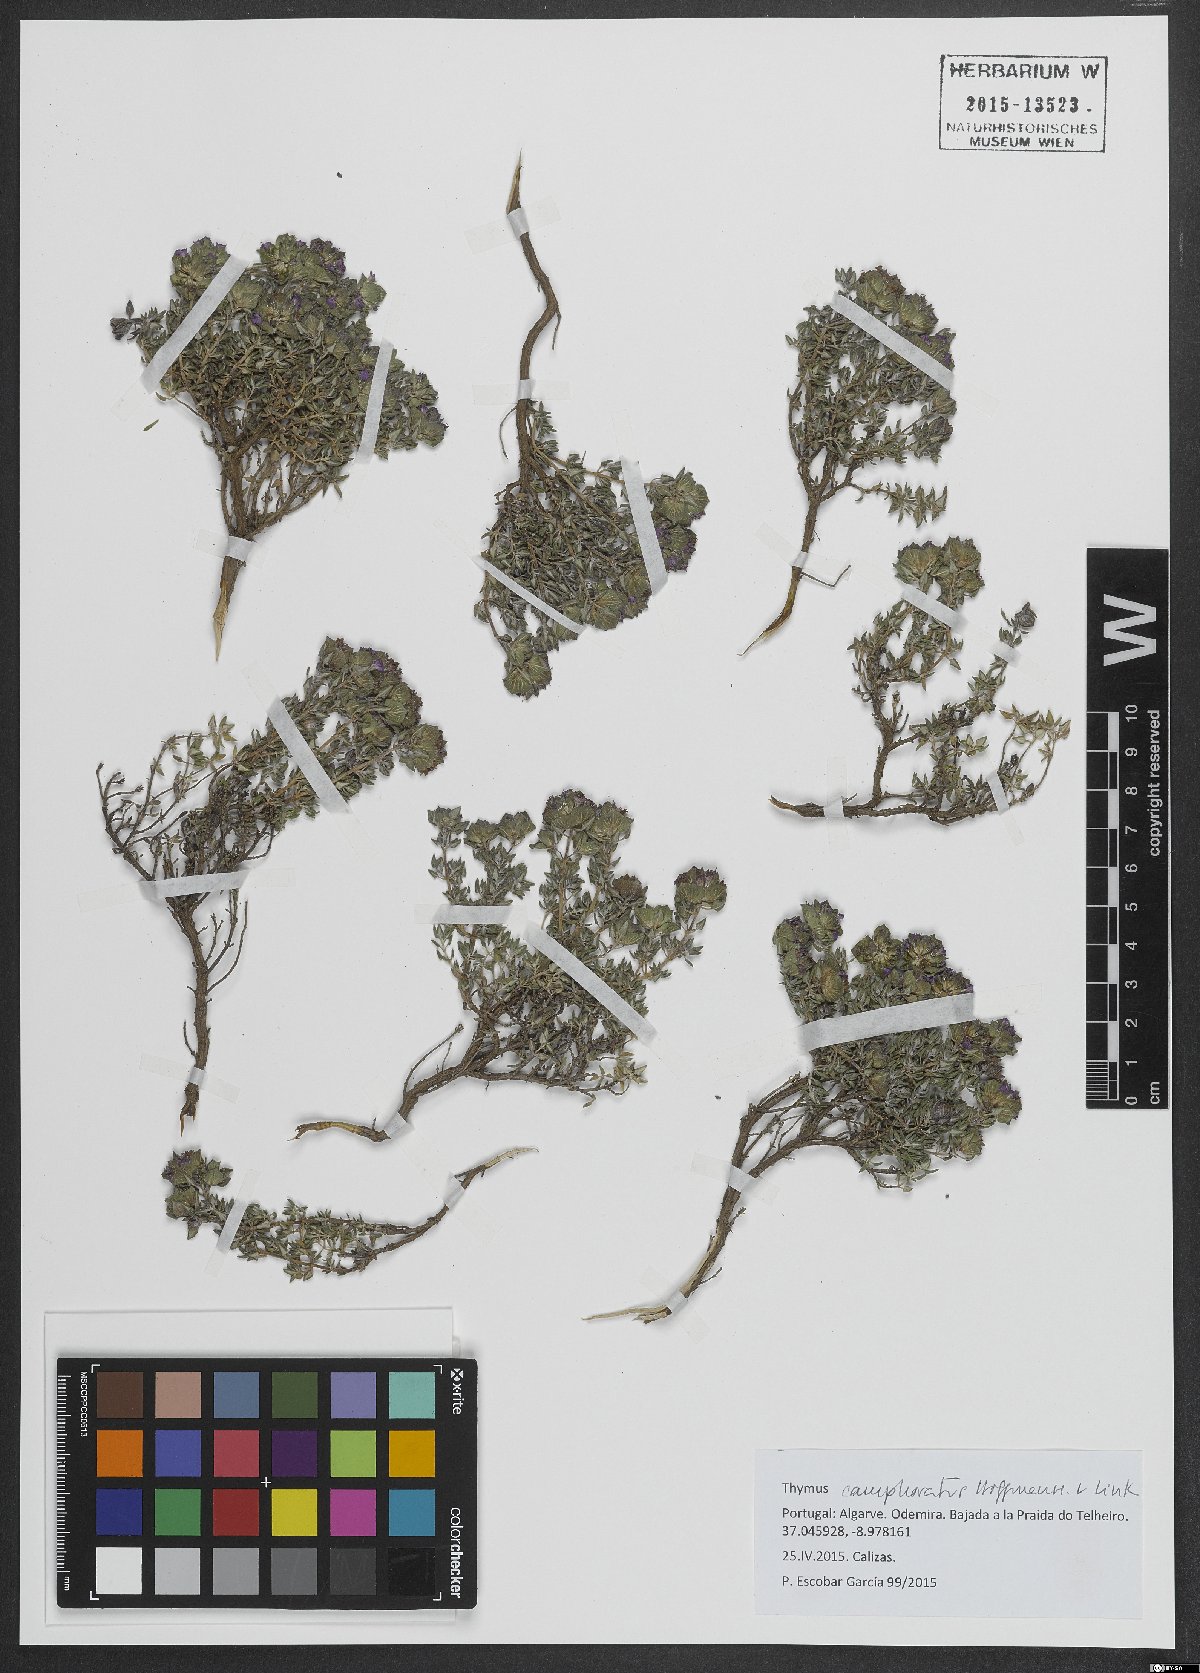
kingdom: Plantae
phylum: Tracheophyta
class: Magnoliopsida
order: Lamiales
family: Lamiaceae
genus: Thymus
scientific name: Thymus camphoratus
